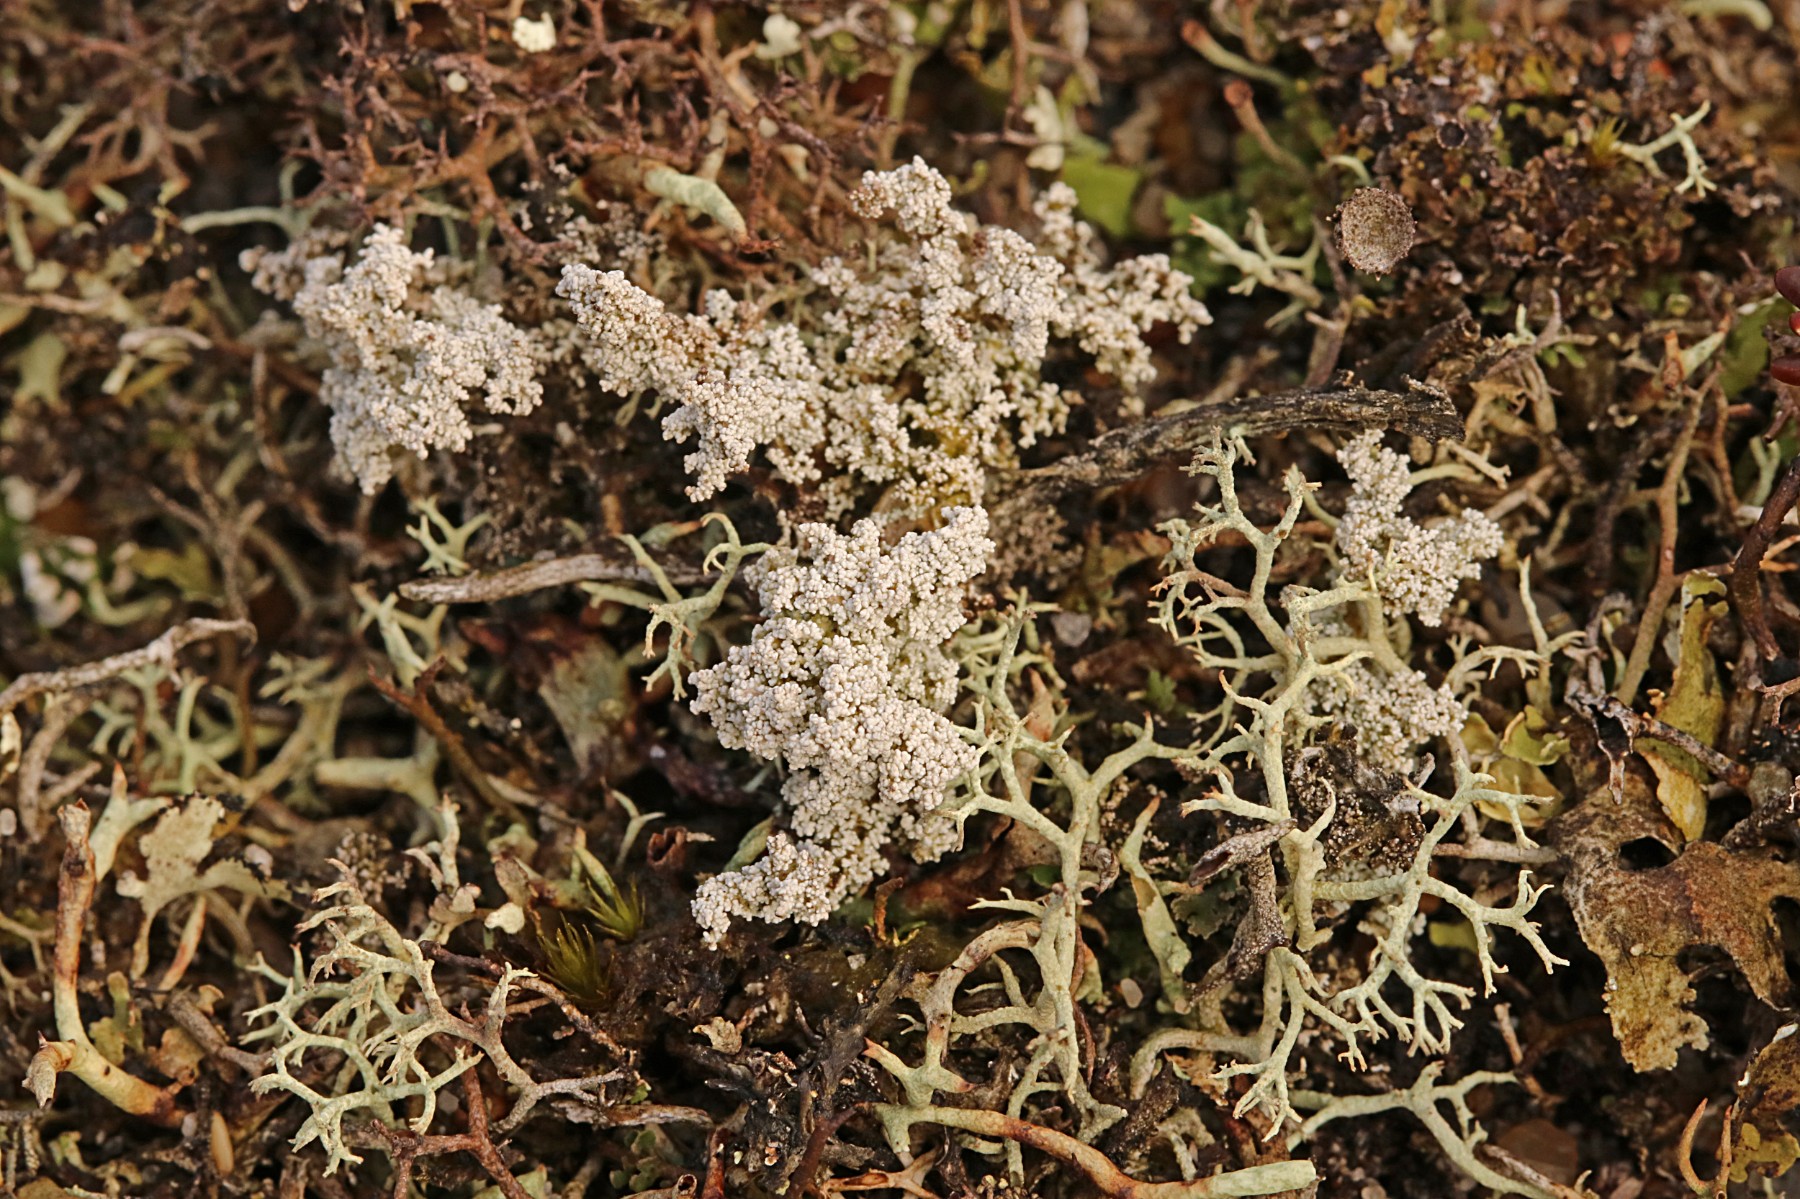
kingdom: Fungi
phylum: Ascomycota
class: Lecanoromycetes
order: Lecanorales
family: Stereocaulaceae
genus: Stereocaulon
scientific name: Stereocaulon saxatile
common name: klit-korallav
